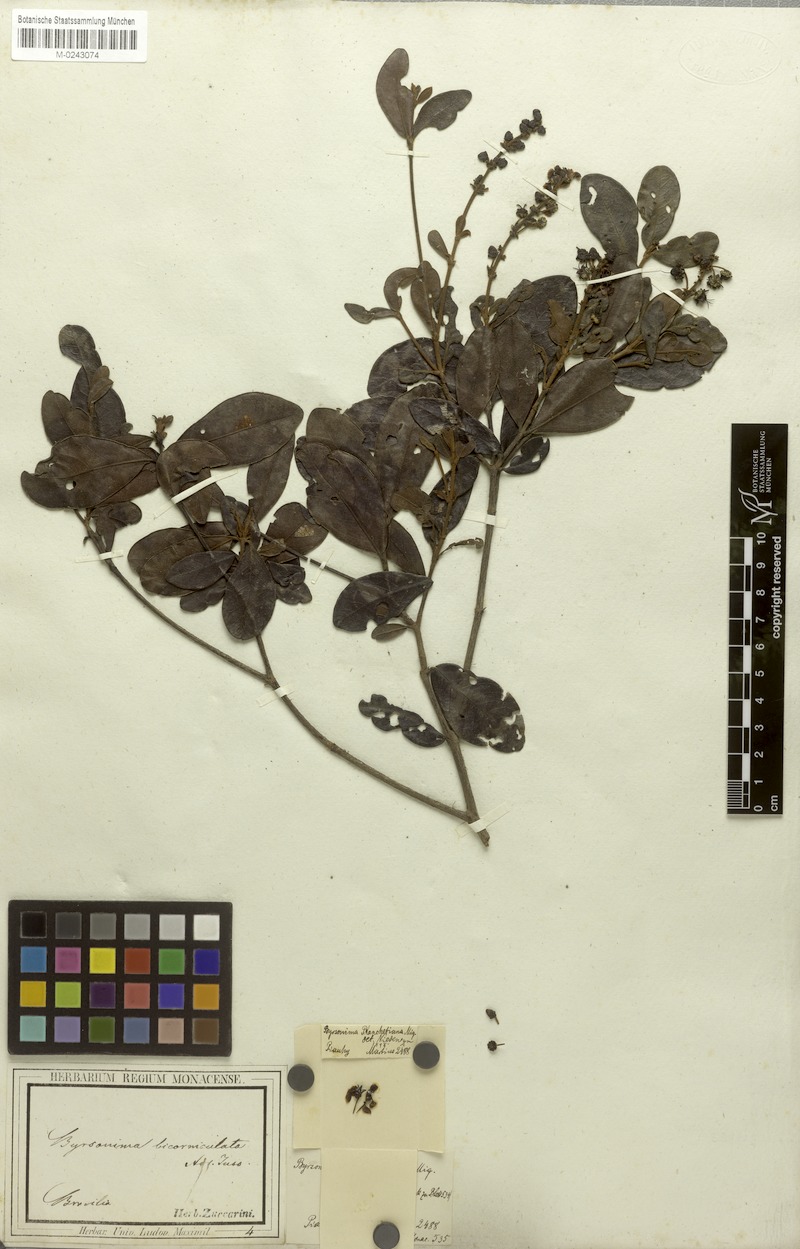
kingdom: Plantae
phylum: Tracheophyta
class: Magnoliopsida
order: Malpighiales
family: Malpighiaceae
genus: Byrsonima
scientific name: Byrsonima bicorniculata
